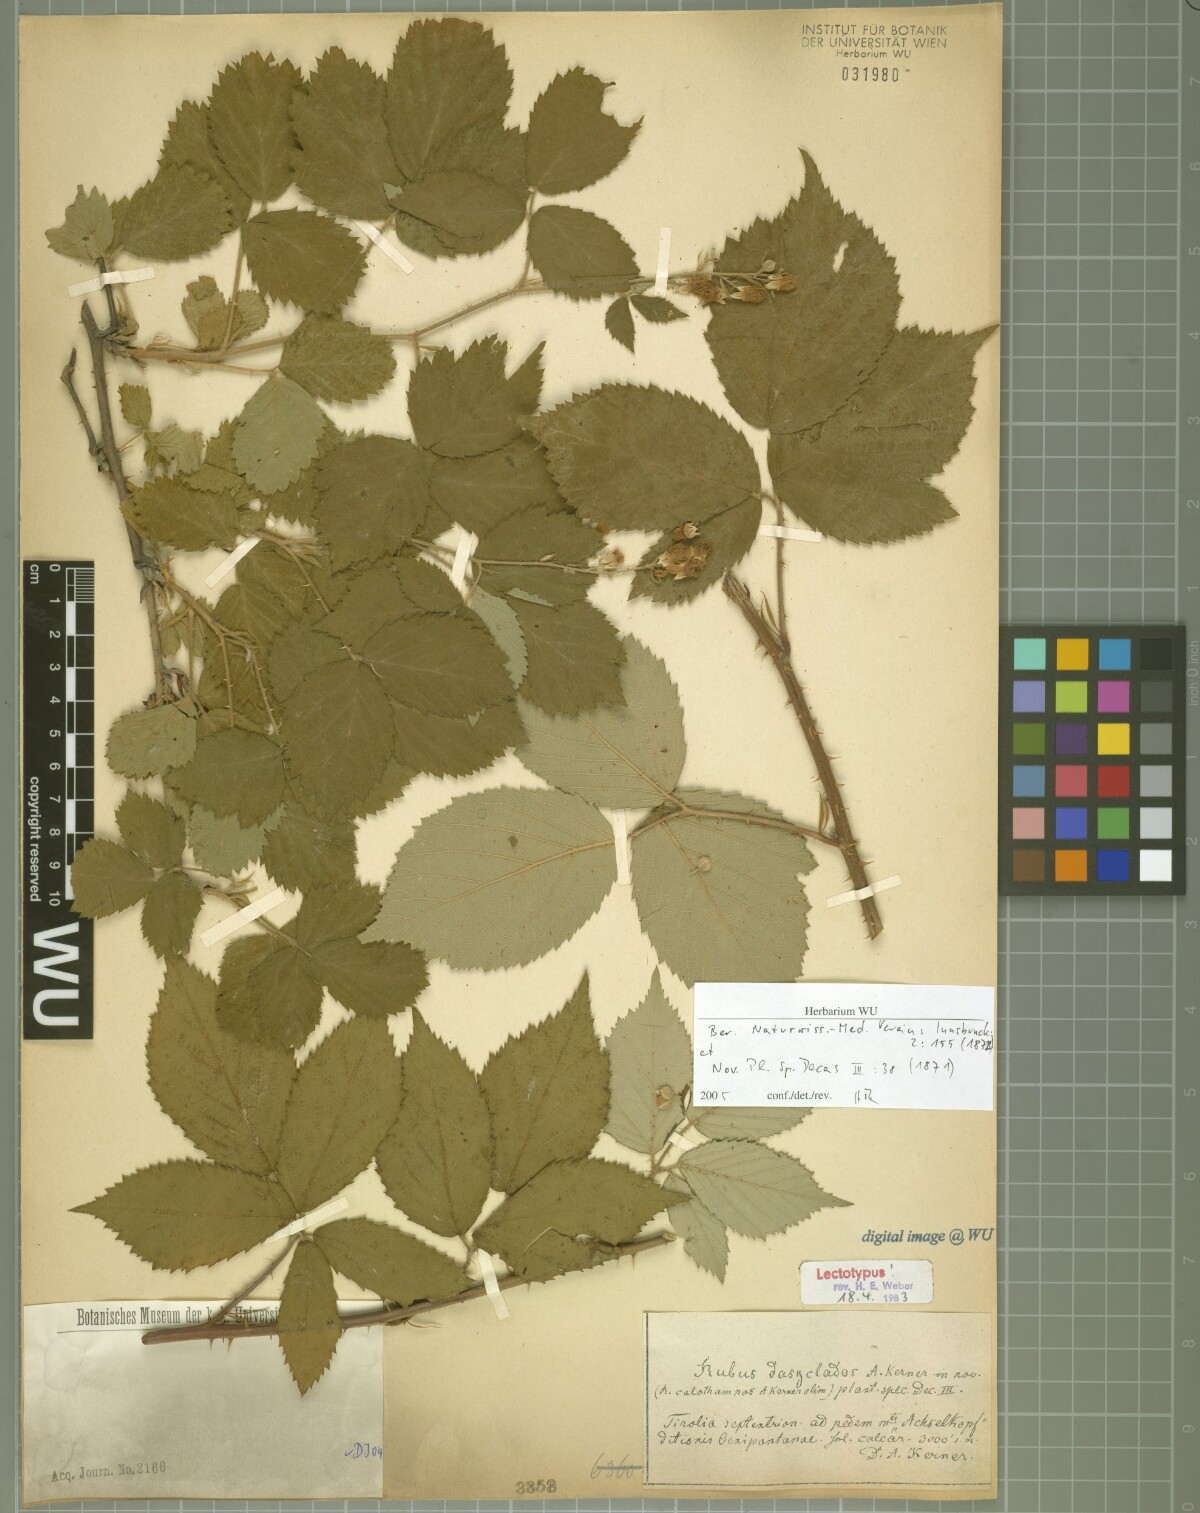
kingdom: Plantae
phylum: Tracheophyta
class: Magnoliopsida
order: Rosales
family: Rosaceae
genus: Rubus
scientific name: Rubus adscitus
